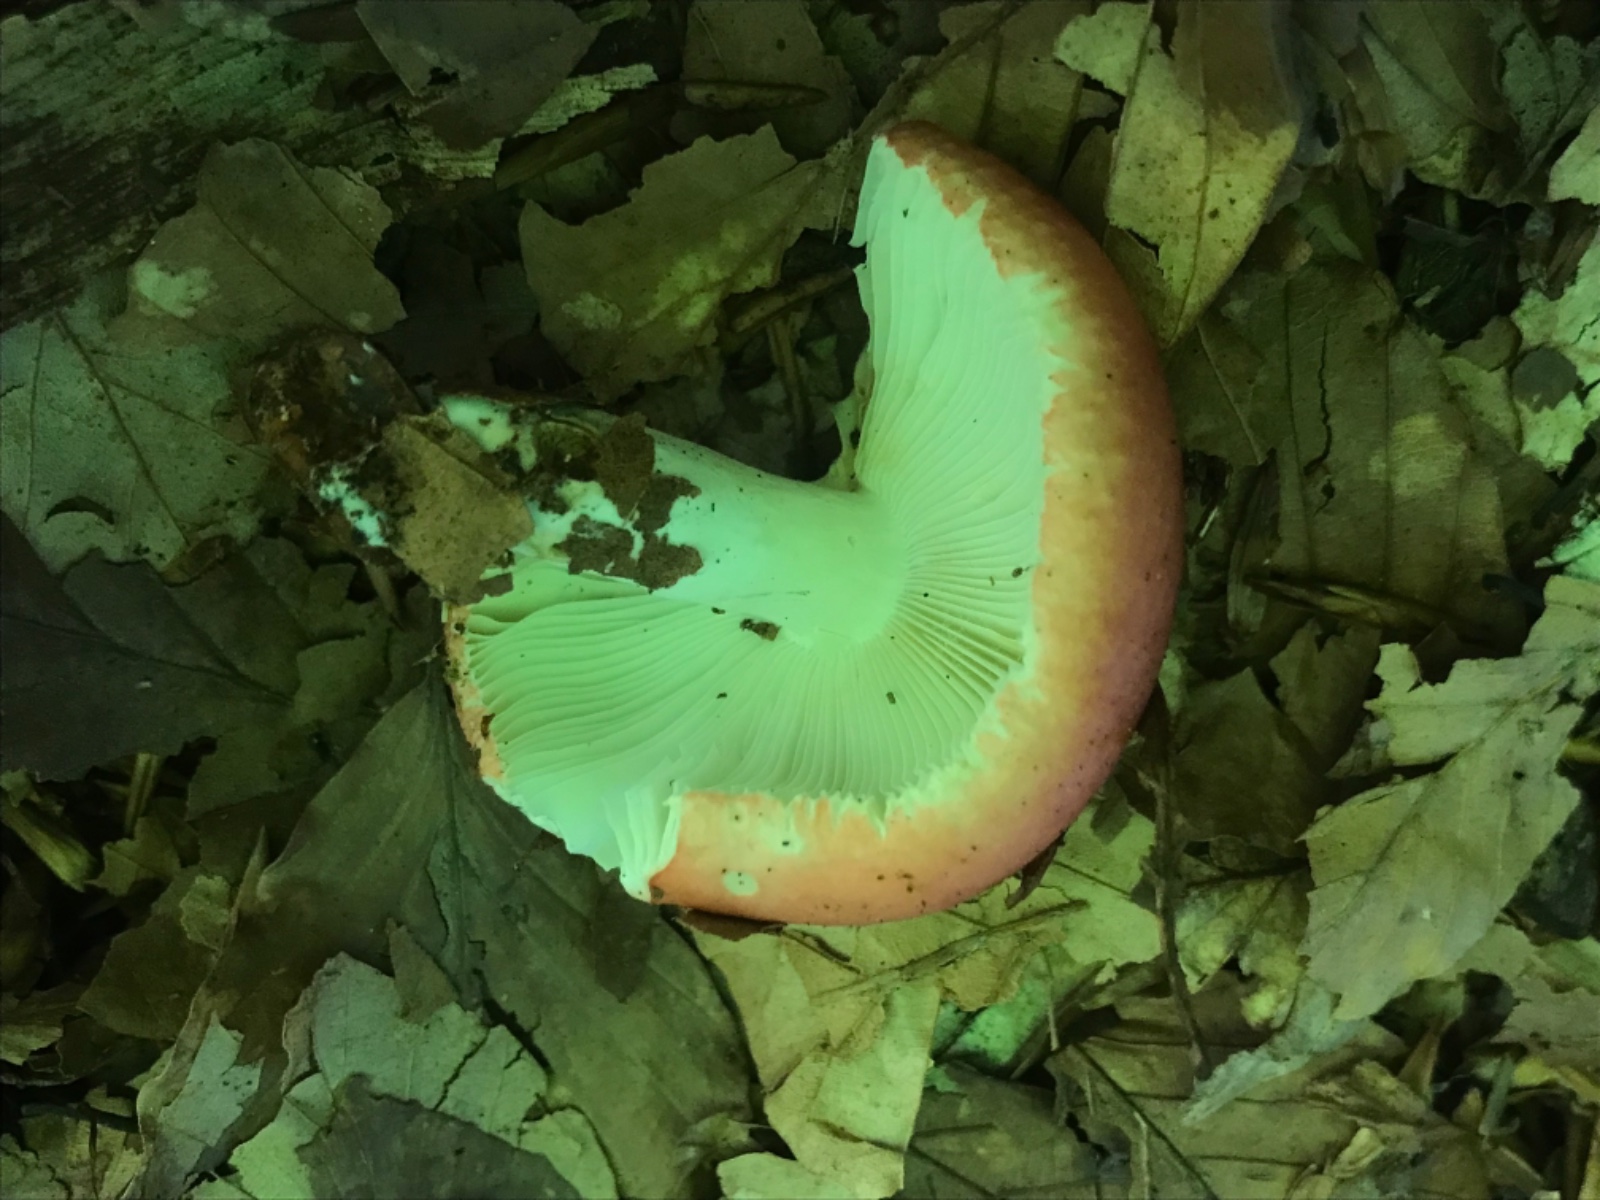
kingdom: Fungi
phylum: Basidiomycota
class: Agaricomycetes
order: Russulales
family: Russulaceae
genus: Russula
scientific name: Russula
